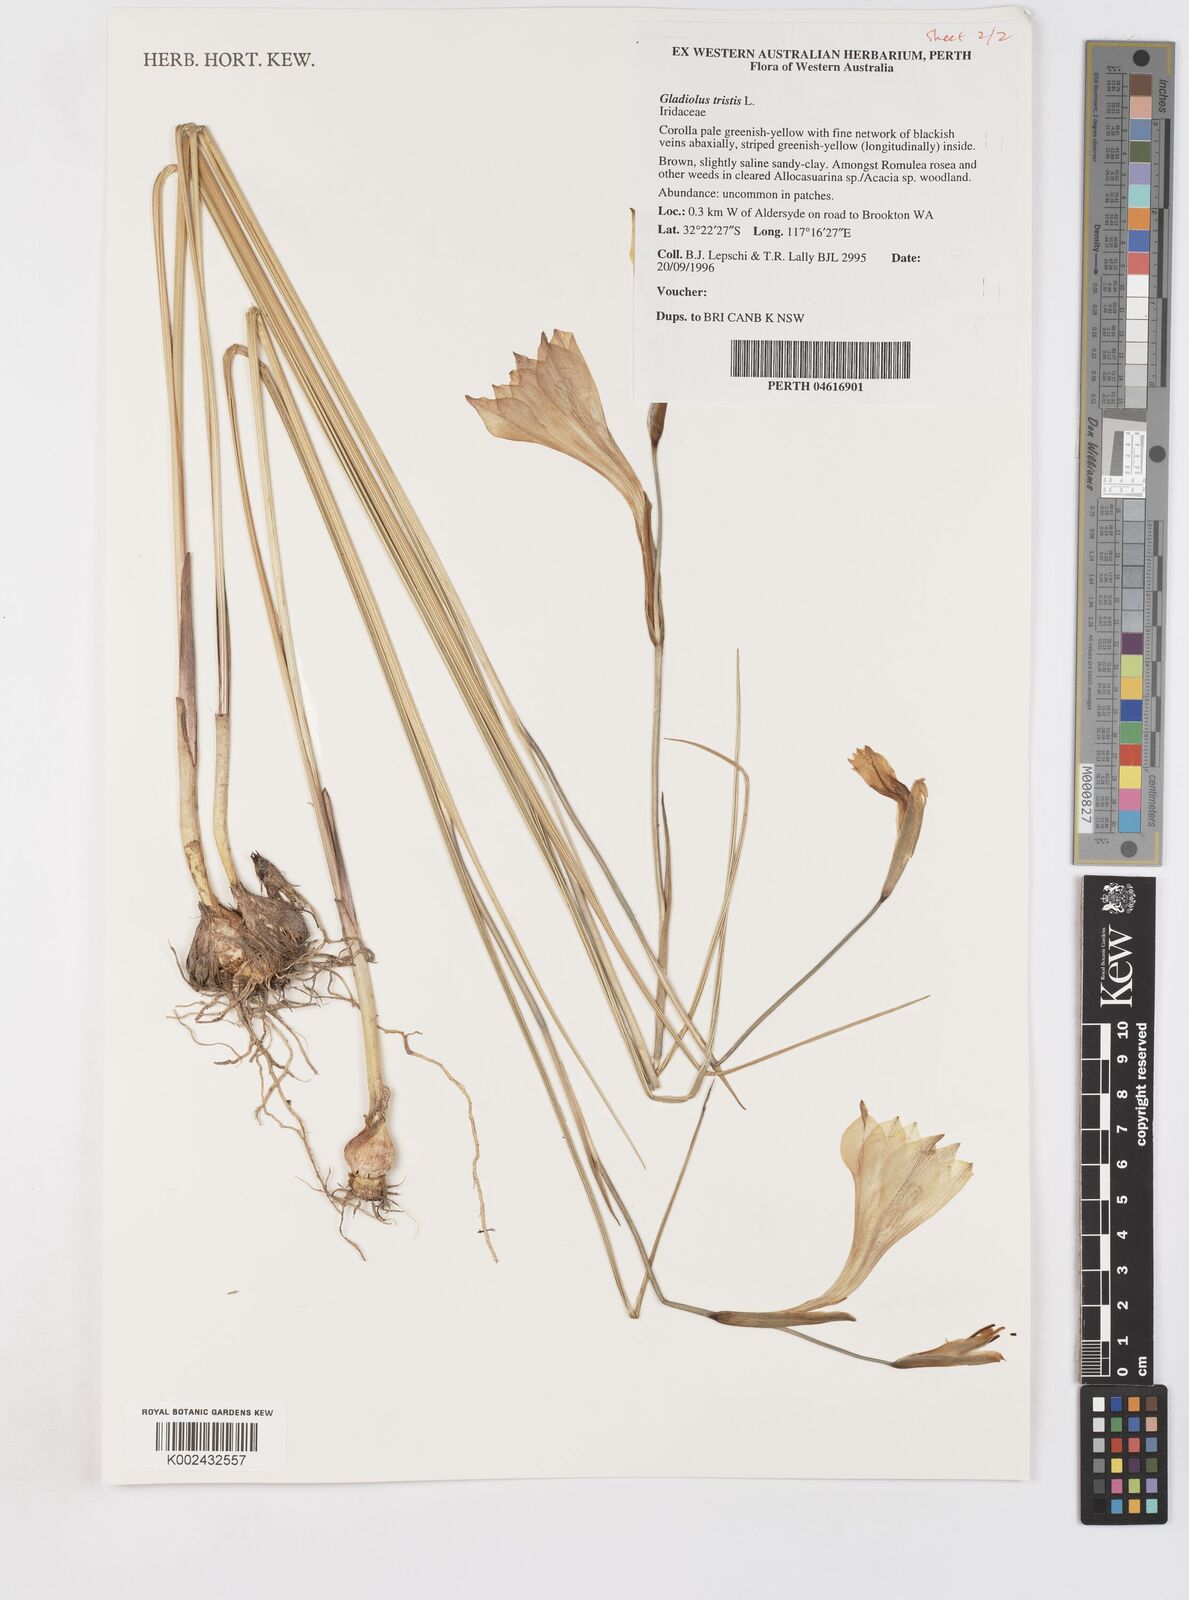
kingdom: Plantae
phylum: Tracheophyta
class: Liliopsida
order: Asparagales
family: Iridaceae
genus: Gladiolus
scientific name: Gladiolus tristis
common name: Ever-flowering gladiolus
